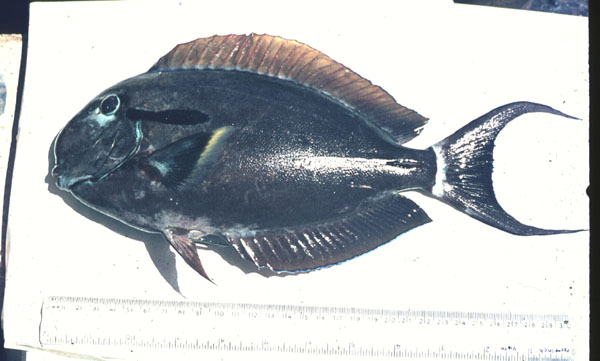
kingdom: Animalia
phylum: Chordata
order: Perciformes
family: Acanthuridae
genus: Acanthurus
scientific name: Acanthurus gahhm
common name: Black surgeonfish
